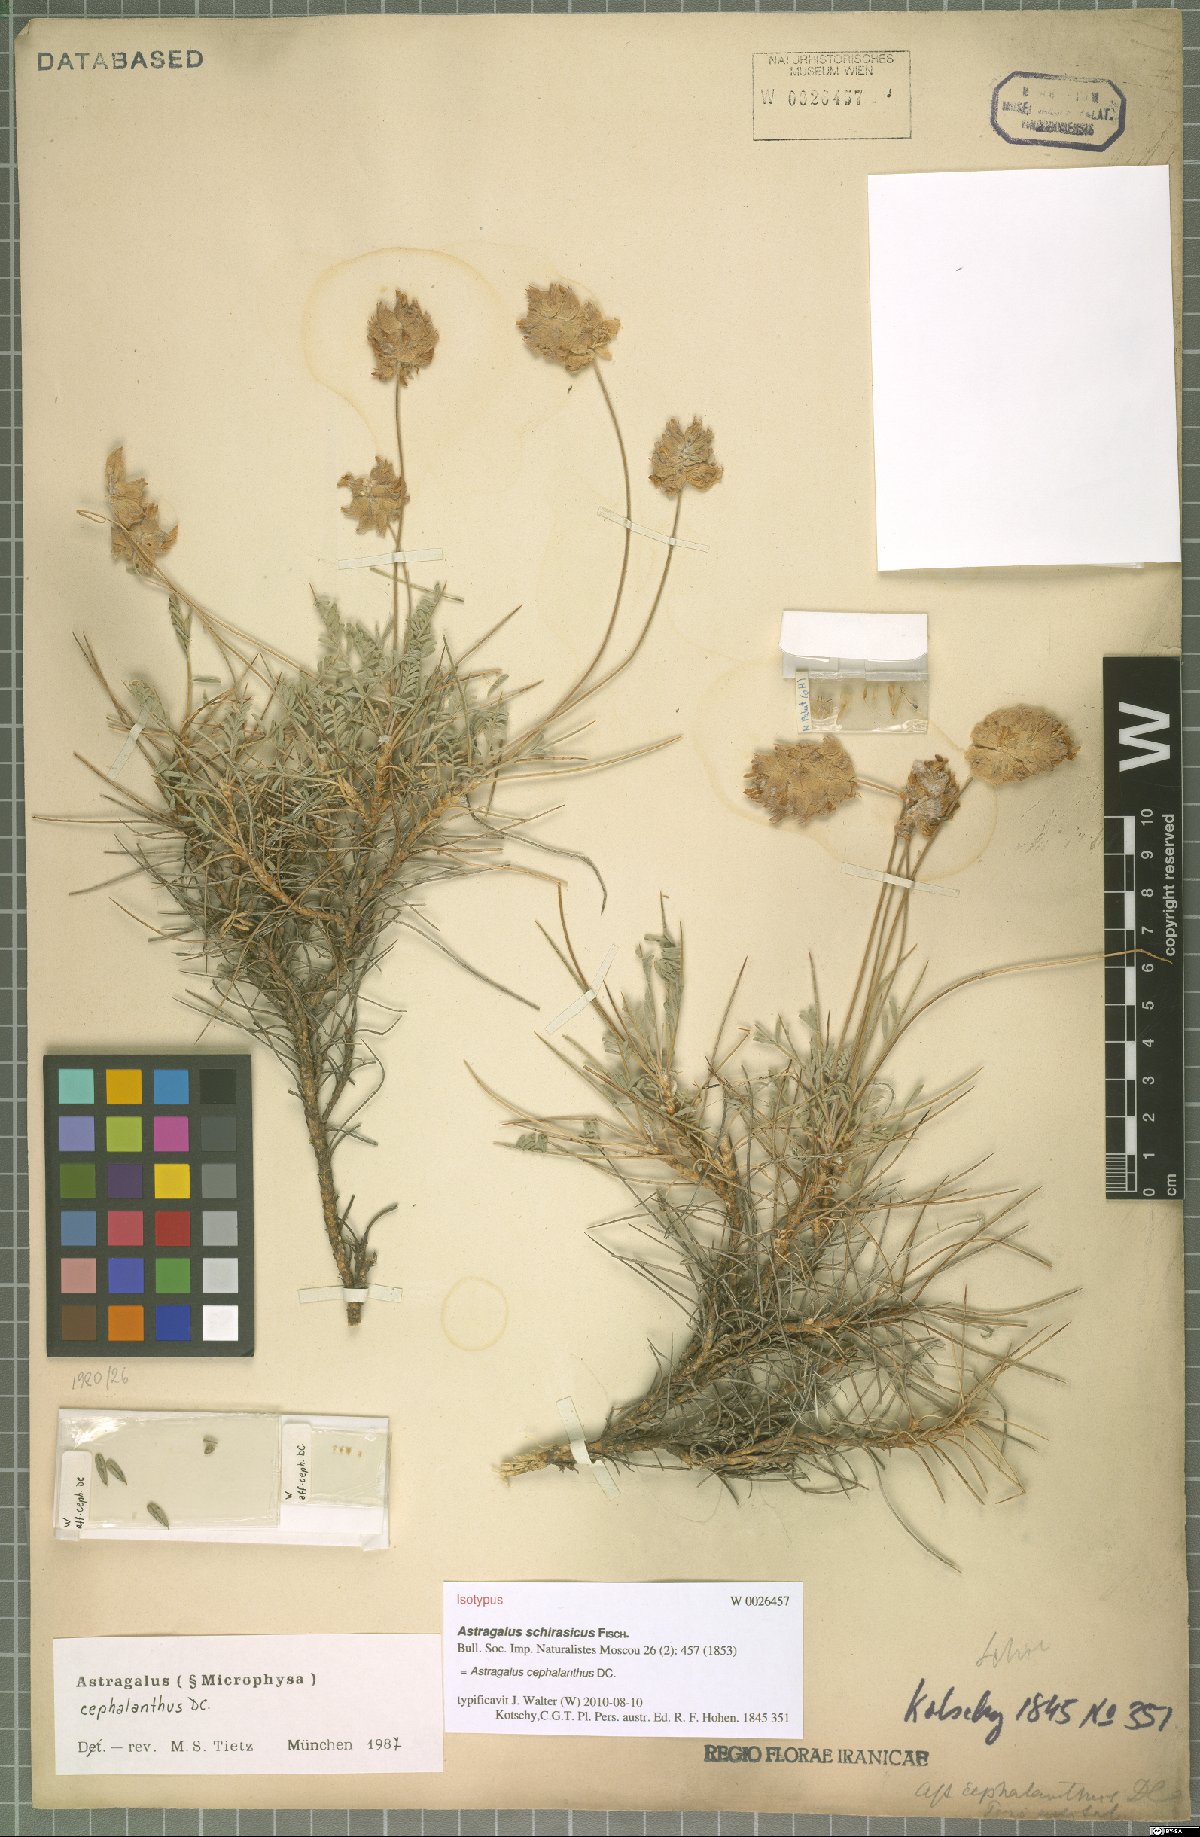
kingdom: Plantae
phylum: Tracheophyta
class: Magnoliopsida
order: Fabales
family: Fabaceae
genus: Astragalus
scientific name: Astragalus cephalanthus
